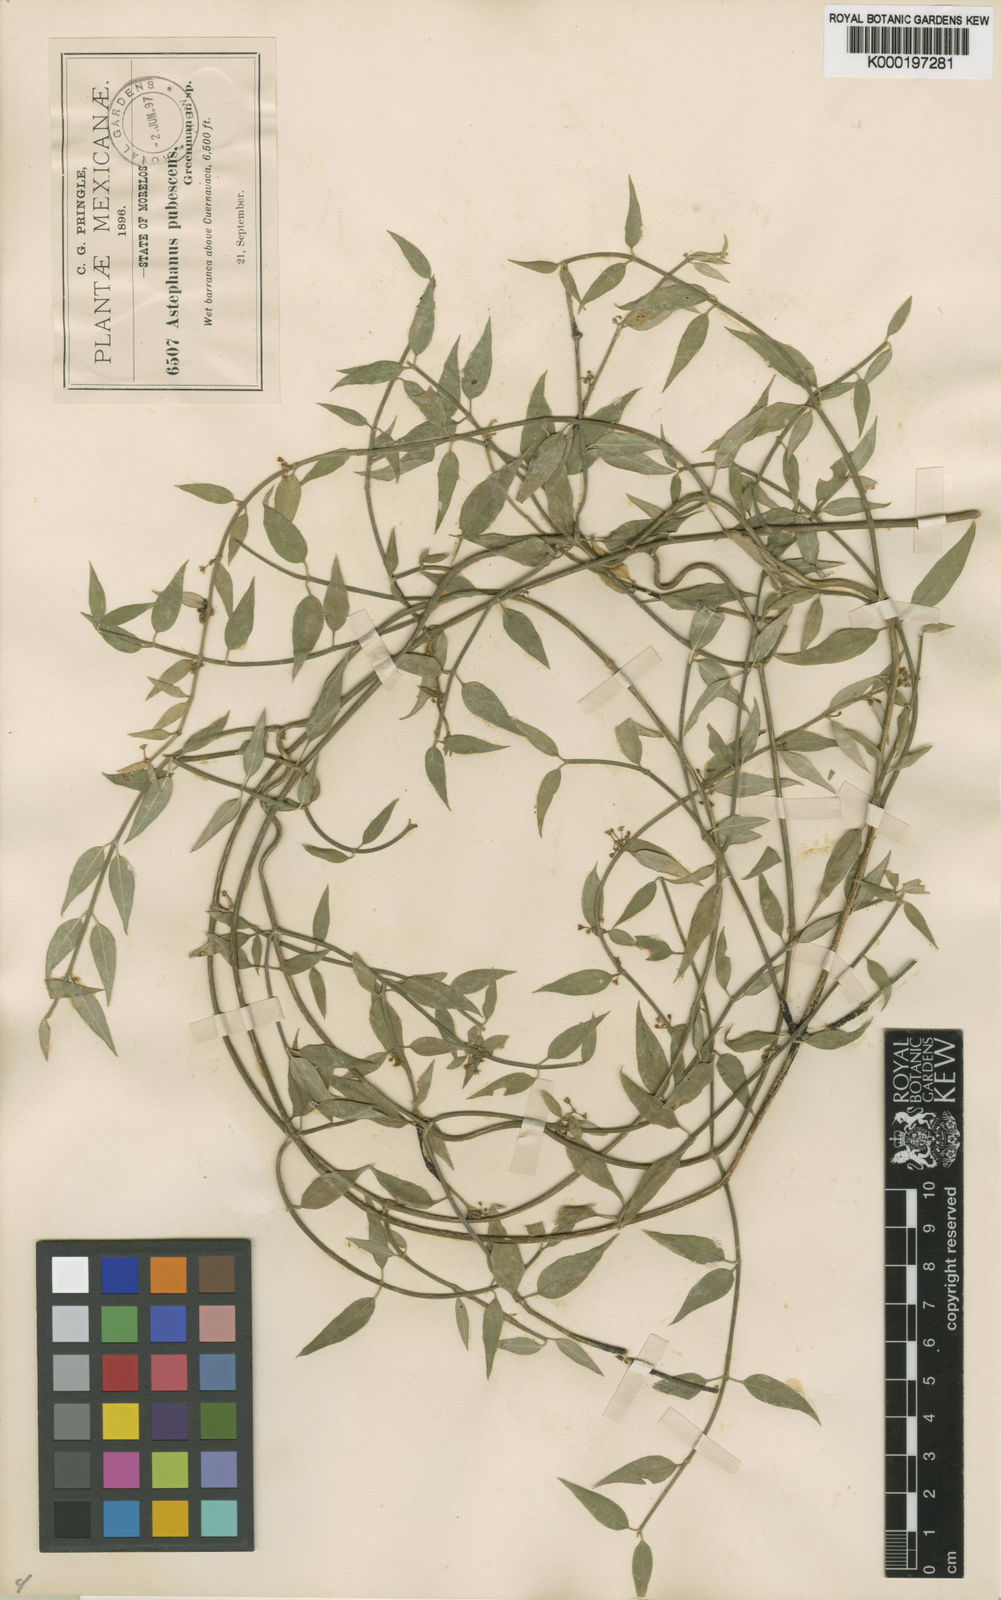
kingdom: Plantae
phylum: Tracheophyta
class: Magnoliopsida
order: Gentianales
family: Apocynaceae
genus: Orthosia
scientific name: Orthosia pubescens
